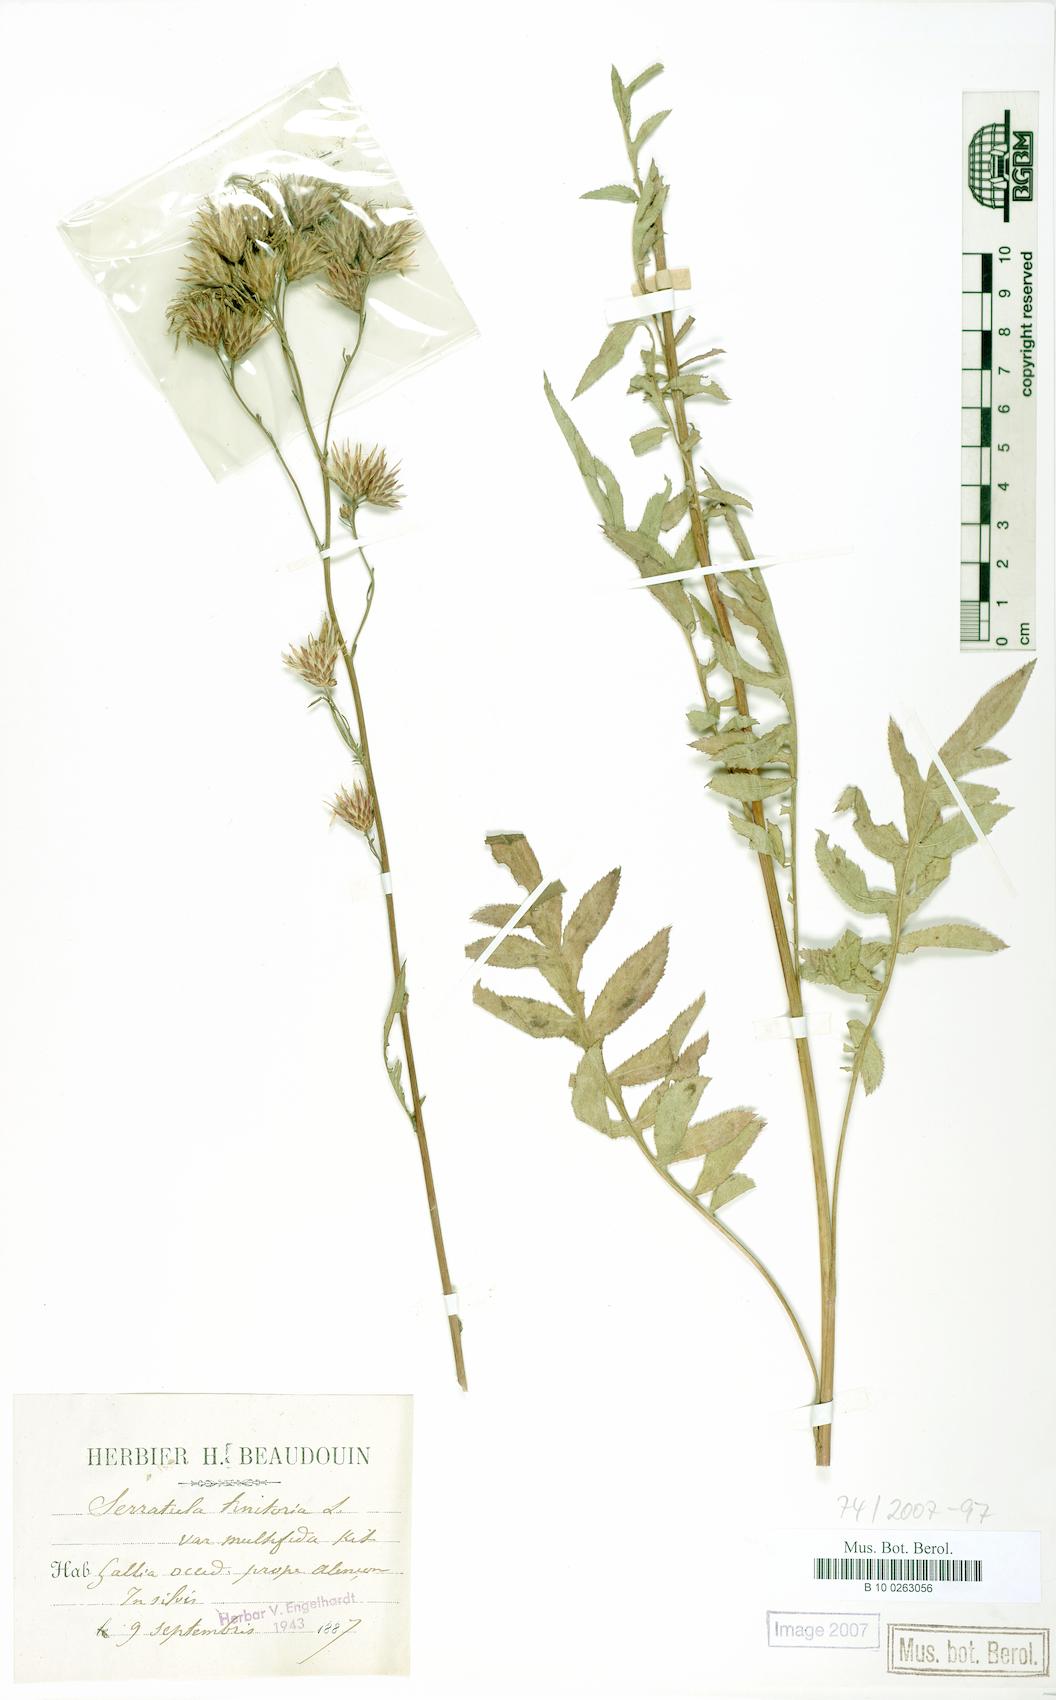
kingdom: Plantae
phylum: Tracheophyta
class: Magnoliopsida
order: Asterales
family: Asteraceae
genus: Serratula
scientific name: Serratula tinctoria
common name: Saw-wort
